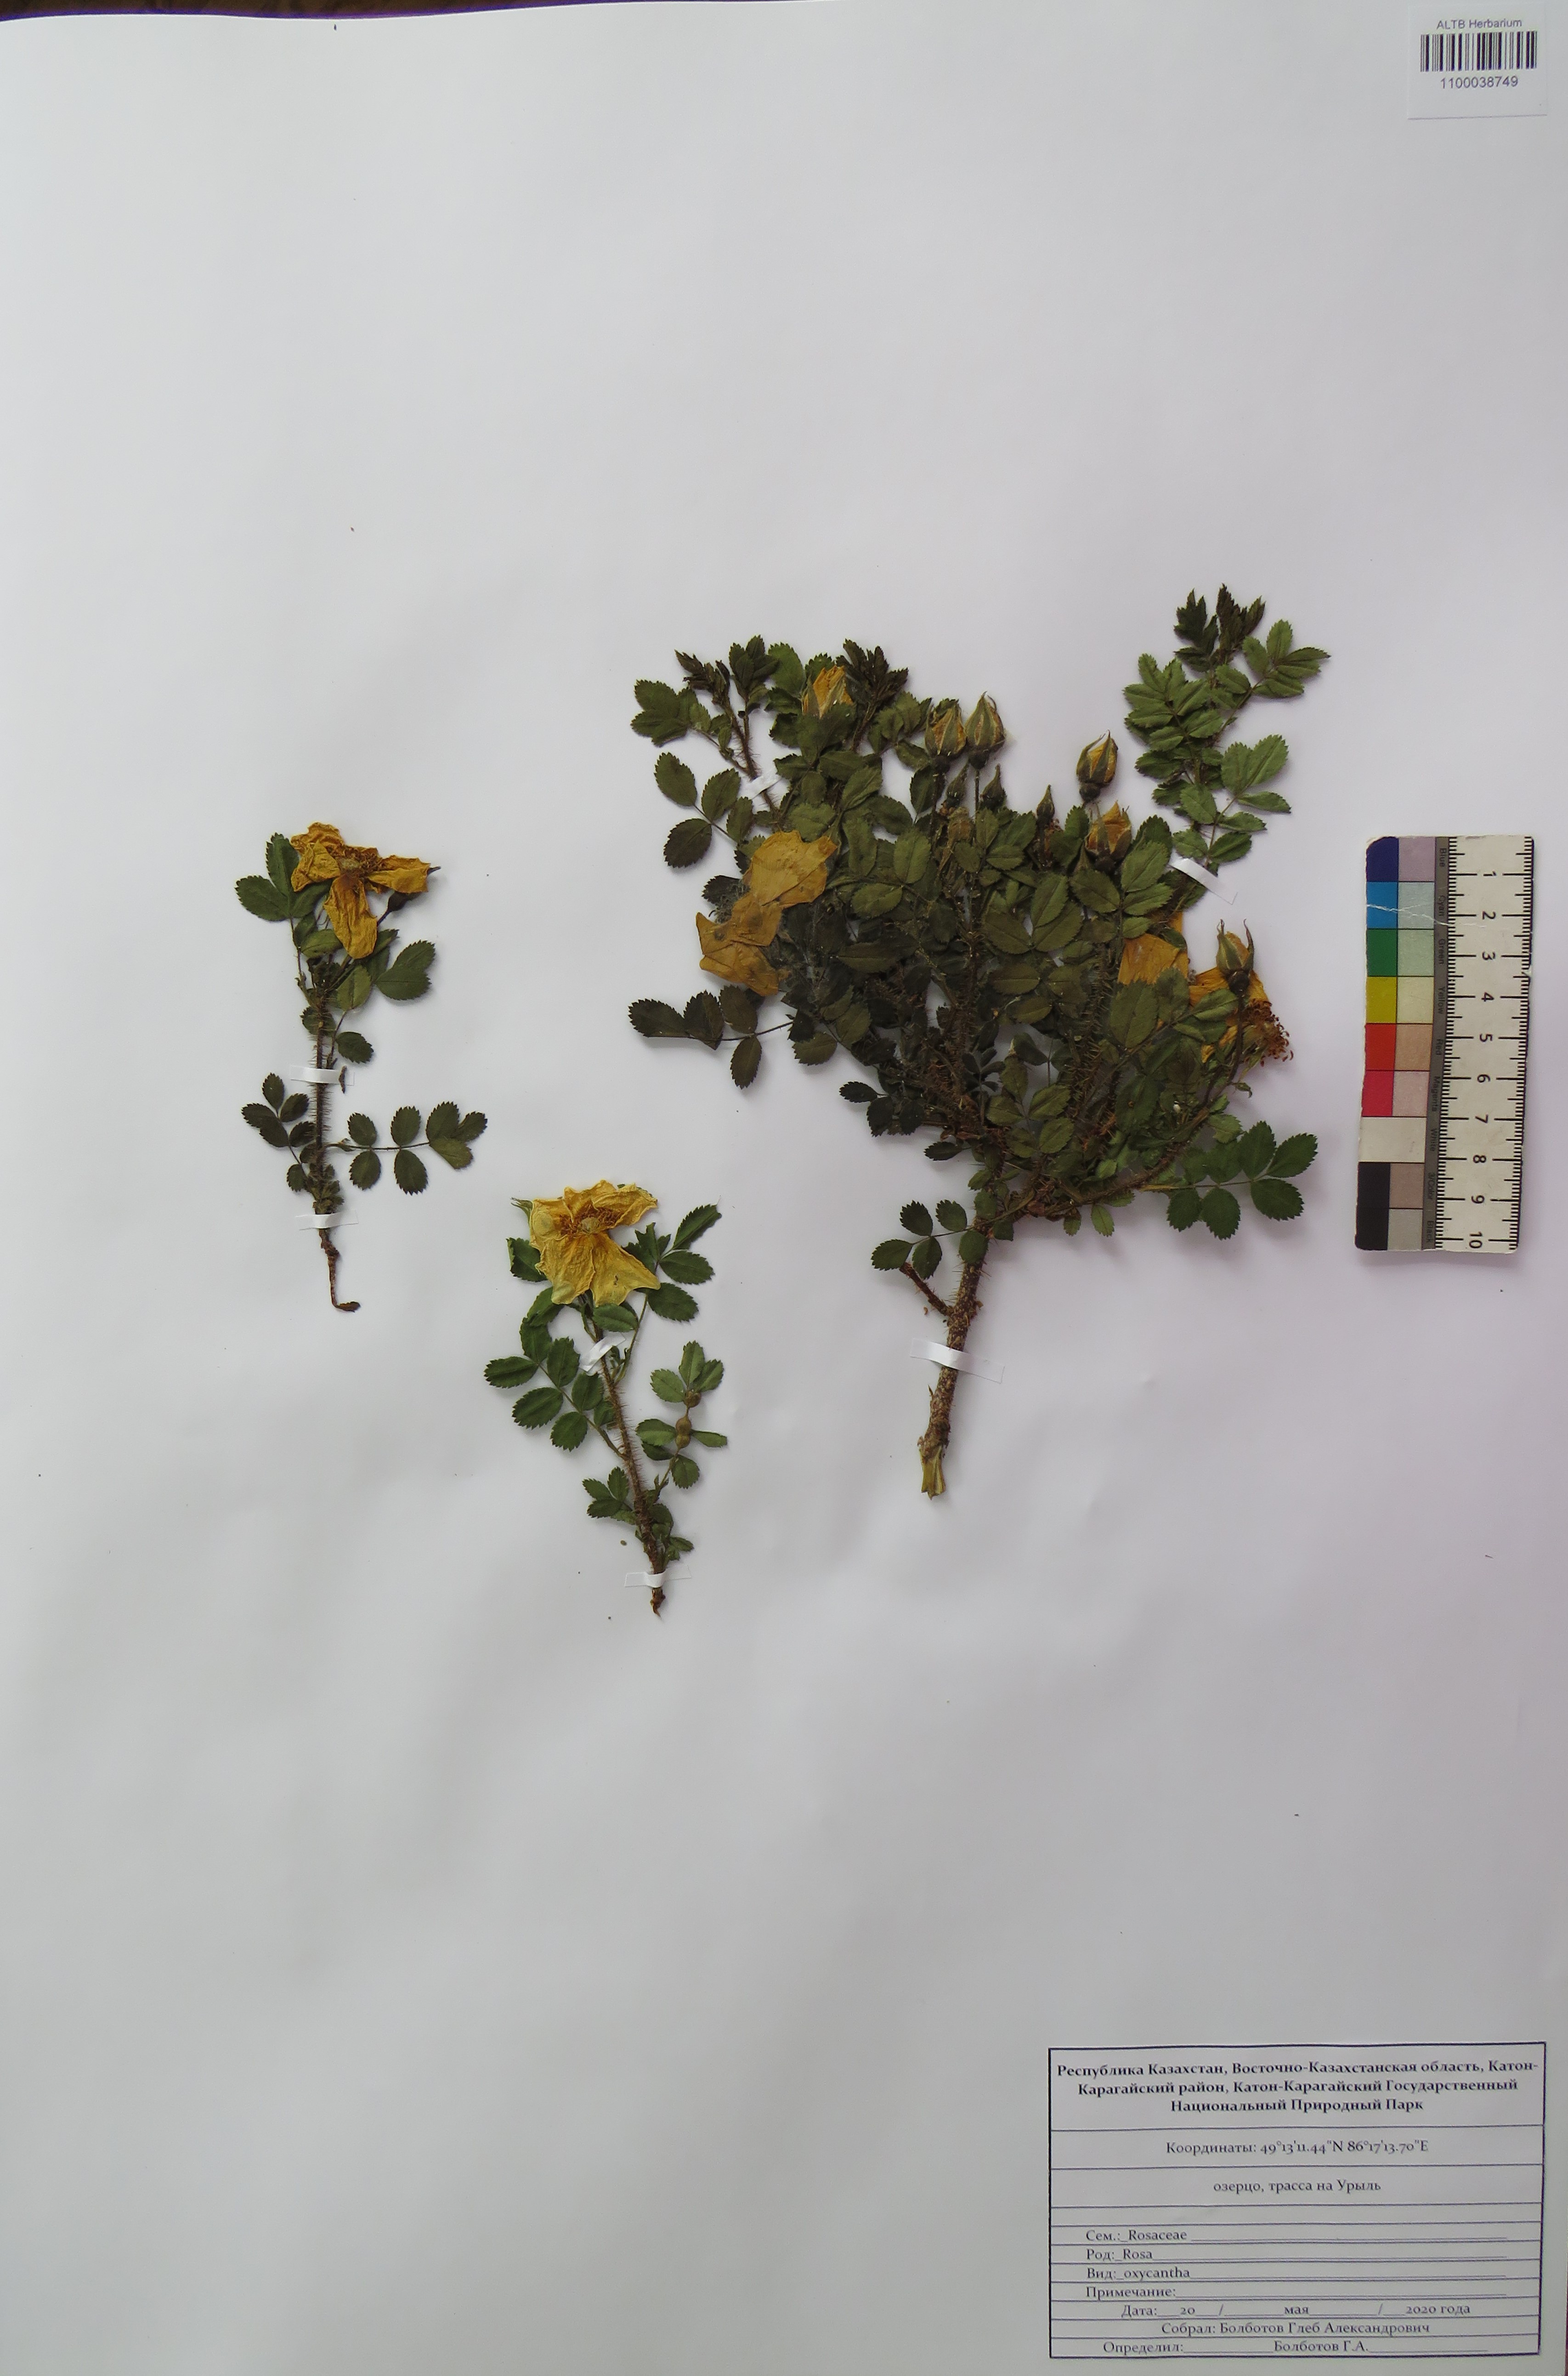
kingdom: Plantae
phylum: Tracheophyta
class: Magnoliopsida
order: Rosales
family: Rosaceae
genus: Rosa
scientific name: Rosa oxyacantha
